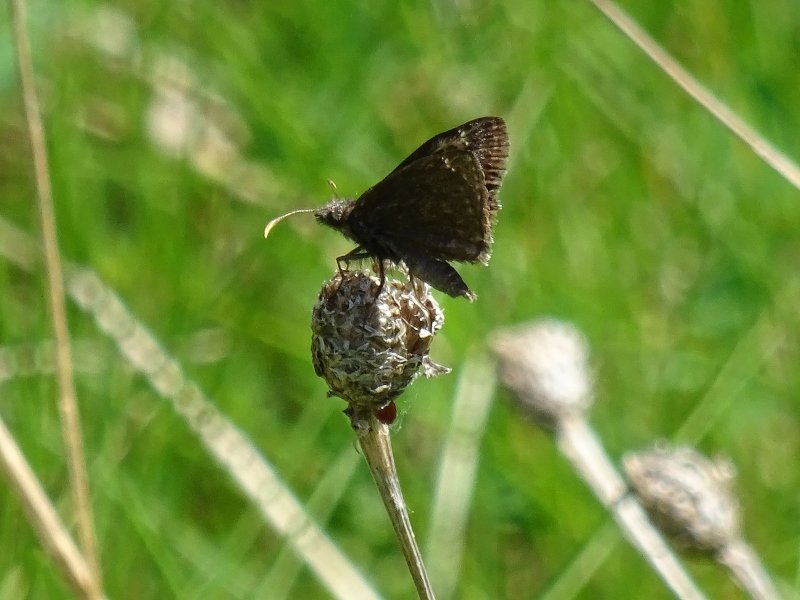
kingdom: Animalia
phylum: Arthropoda
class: Insecta
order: Lepidoptera
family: Hesperiidae
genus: Gesta
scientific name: Gesta
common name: Wild Indigo Duskywing
